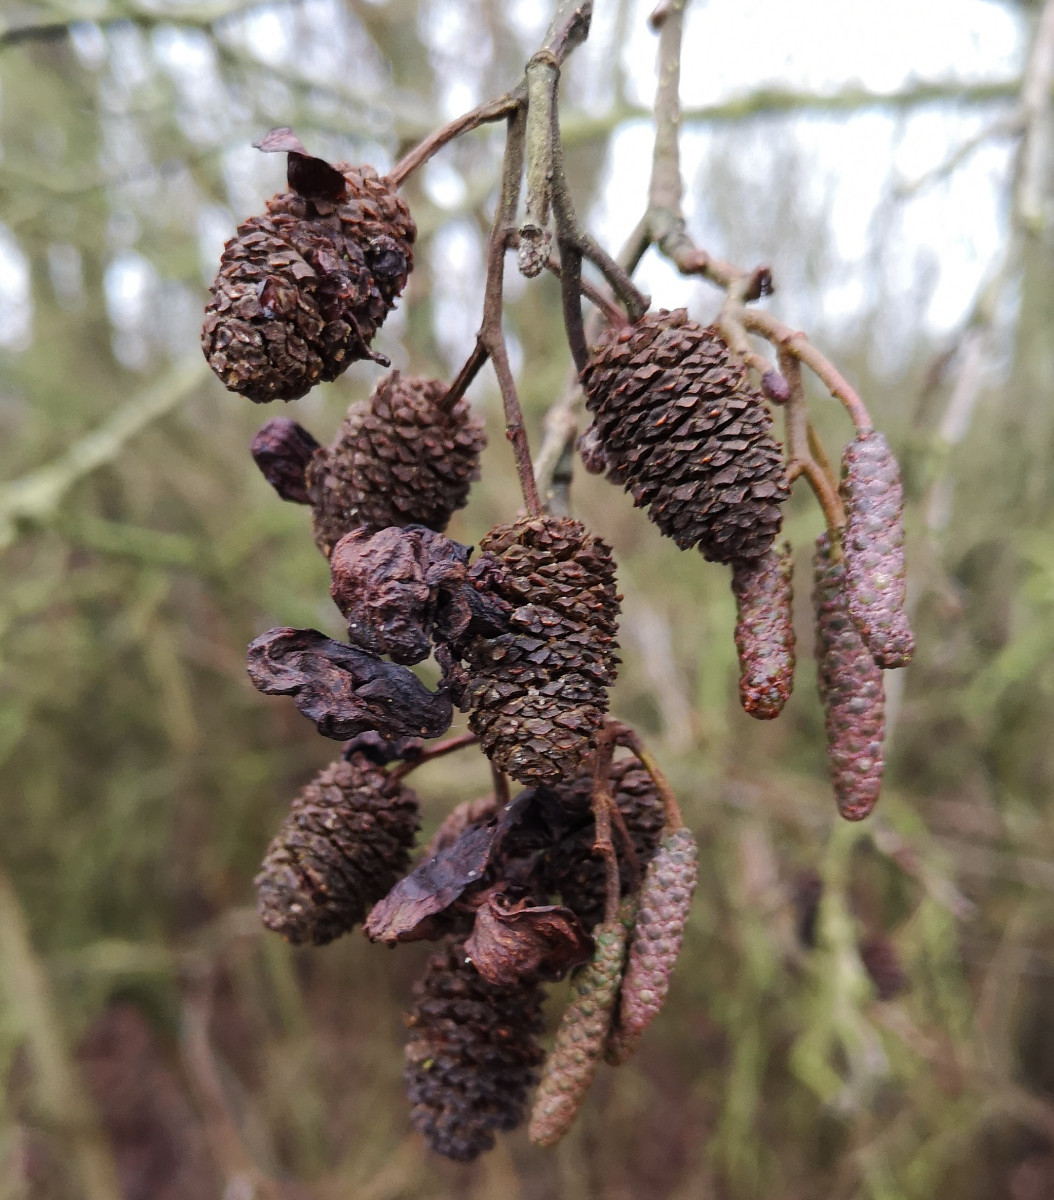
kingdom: Fungi
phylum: Ascomycota
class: Taphrinomycetes
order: Taphrinales
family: Taphrinaceae
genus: Taphrina
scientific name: Taphrina alni
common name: Alder tongue
